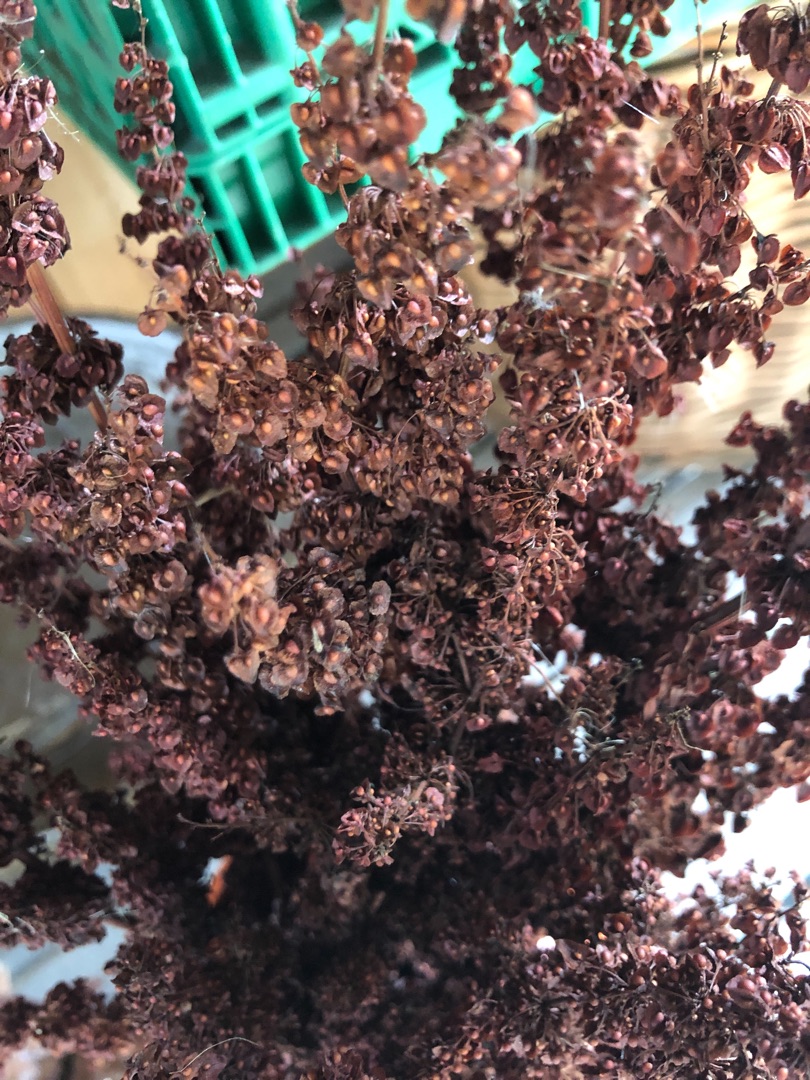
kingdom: Plantae
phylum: Tracheophyta
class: Magnoliopsida
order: Caryophyllales
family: Polygonaceae
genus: Rumex
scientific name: Rumex crispus
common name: Kruset skræppe
